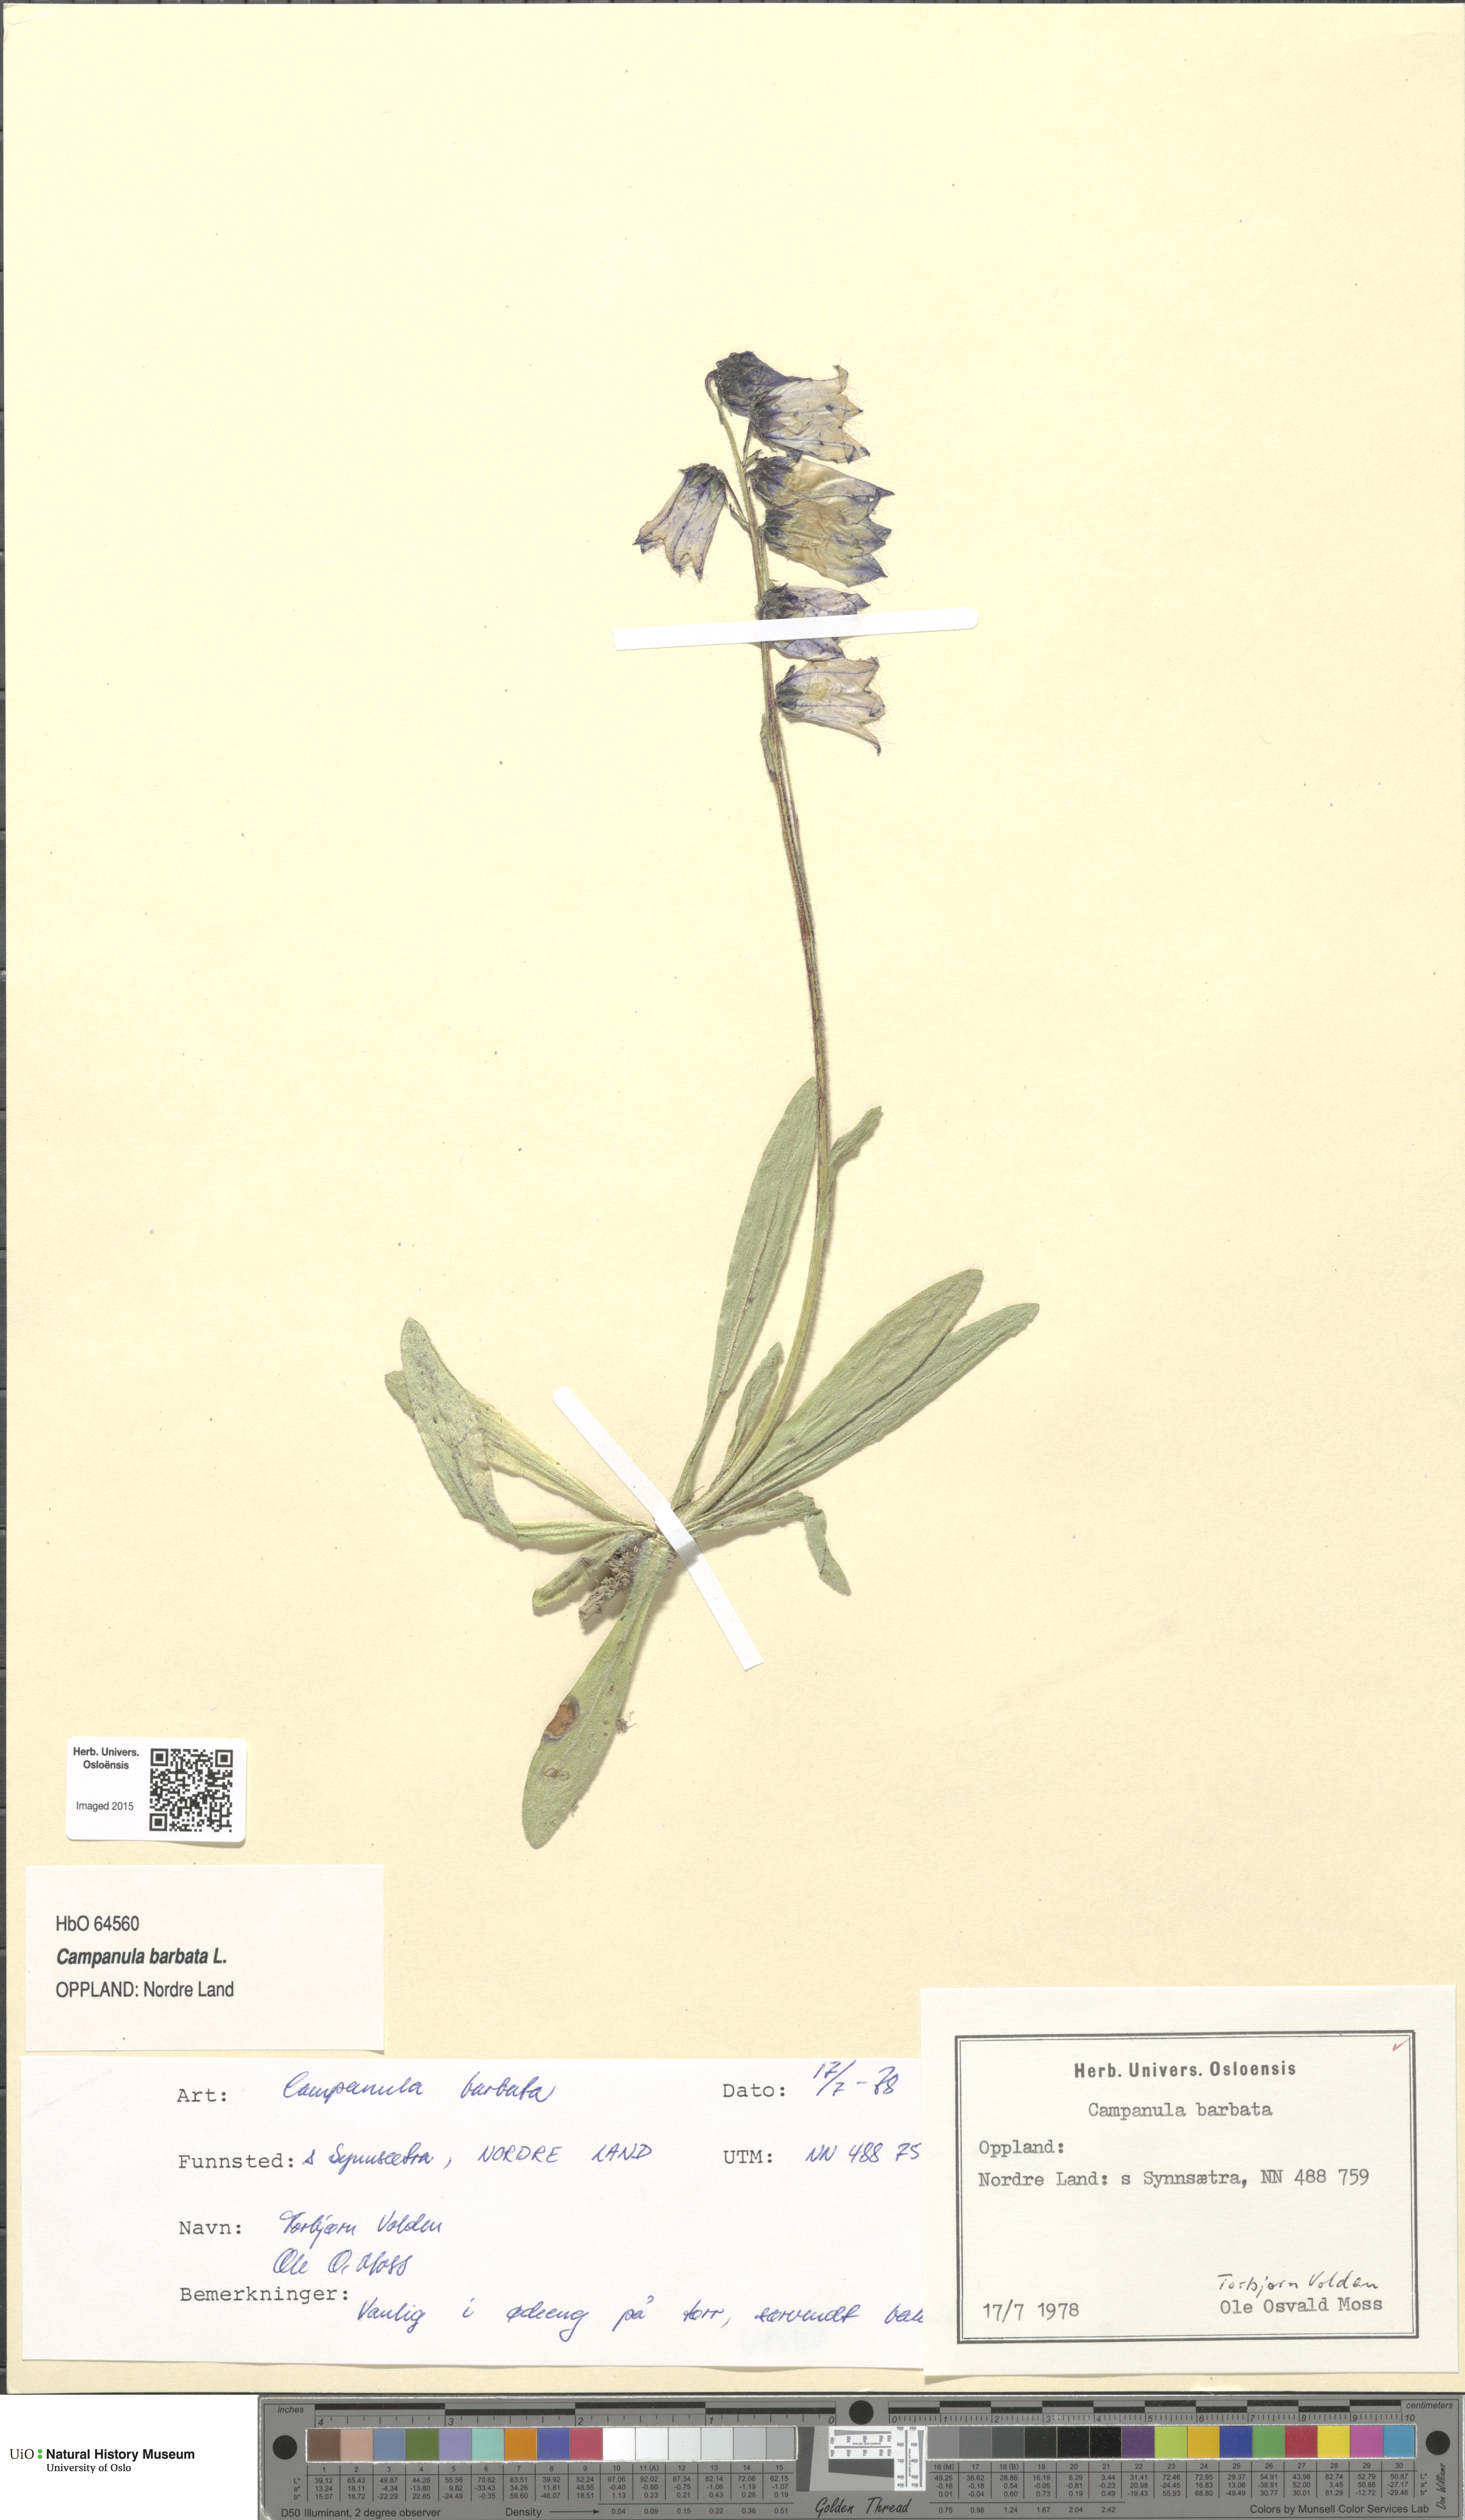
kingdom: Plantae
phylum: Tracheophyta
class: Magnoliopsida
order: Asterales
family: Campanulaceae
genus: Campanula
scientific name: Campanula barbata
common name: Bearded bellflower
